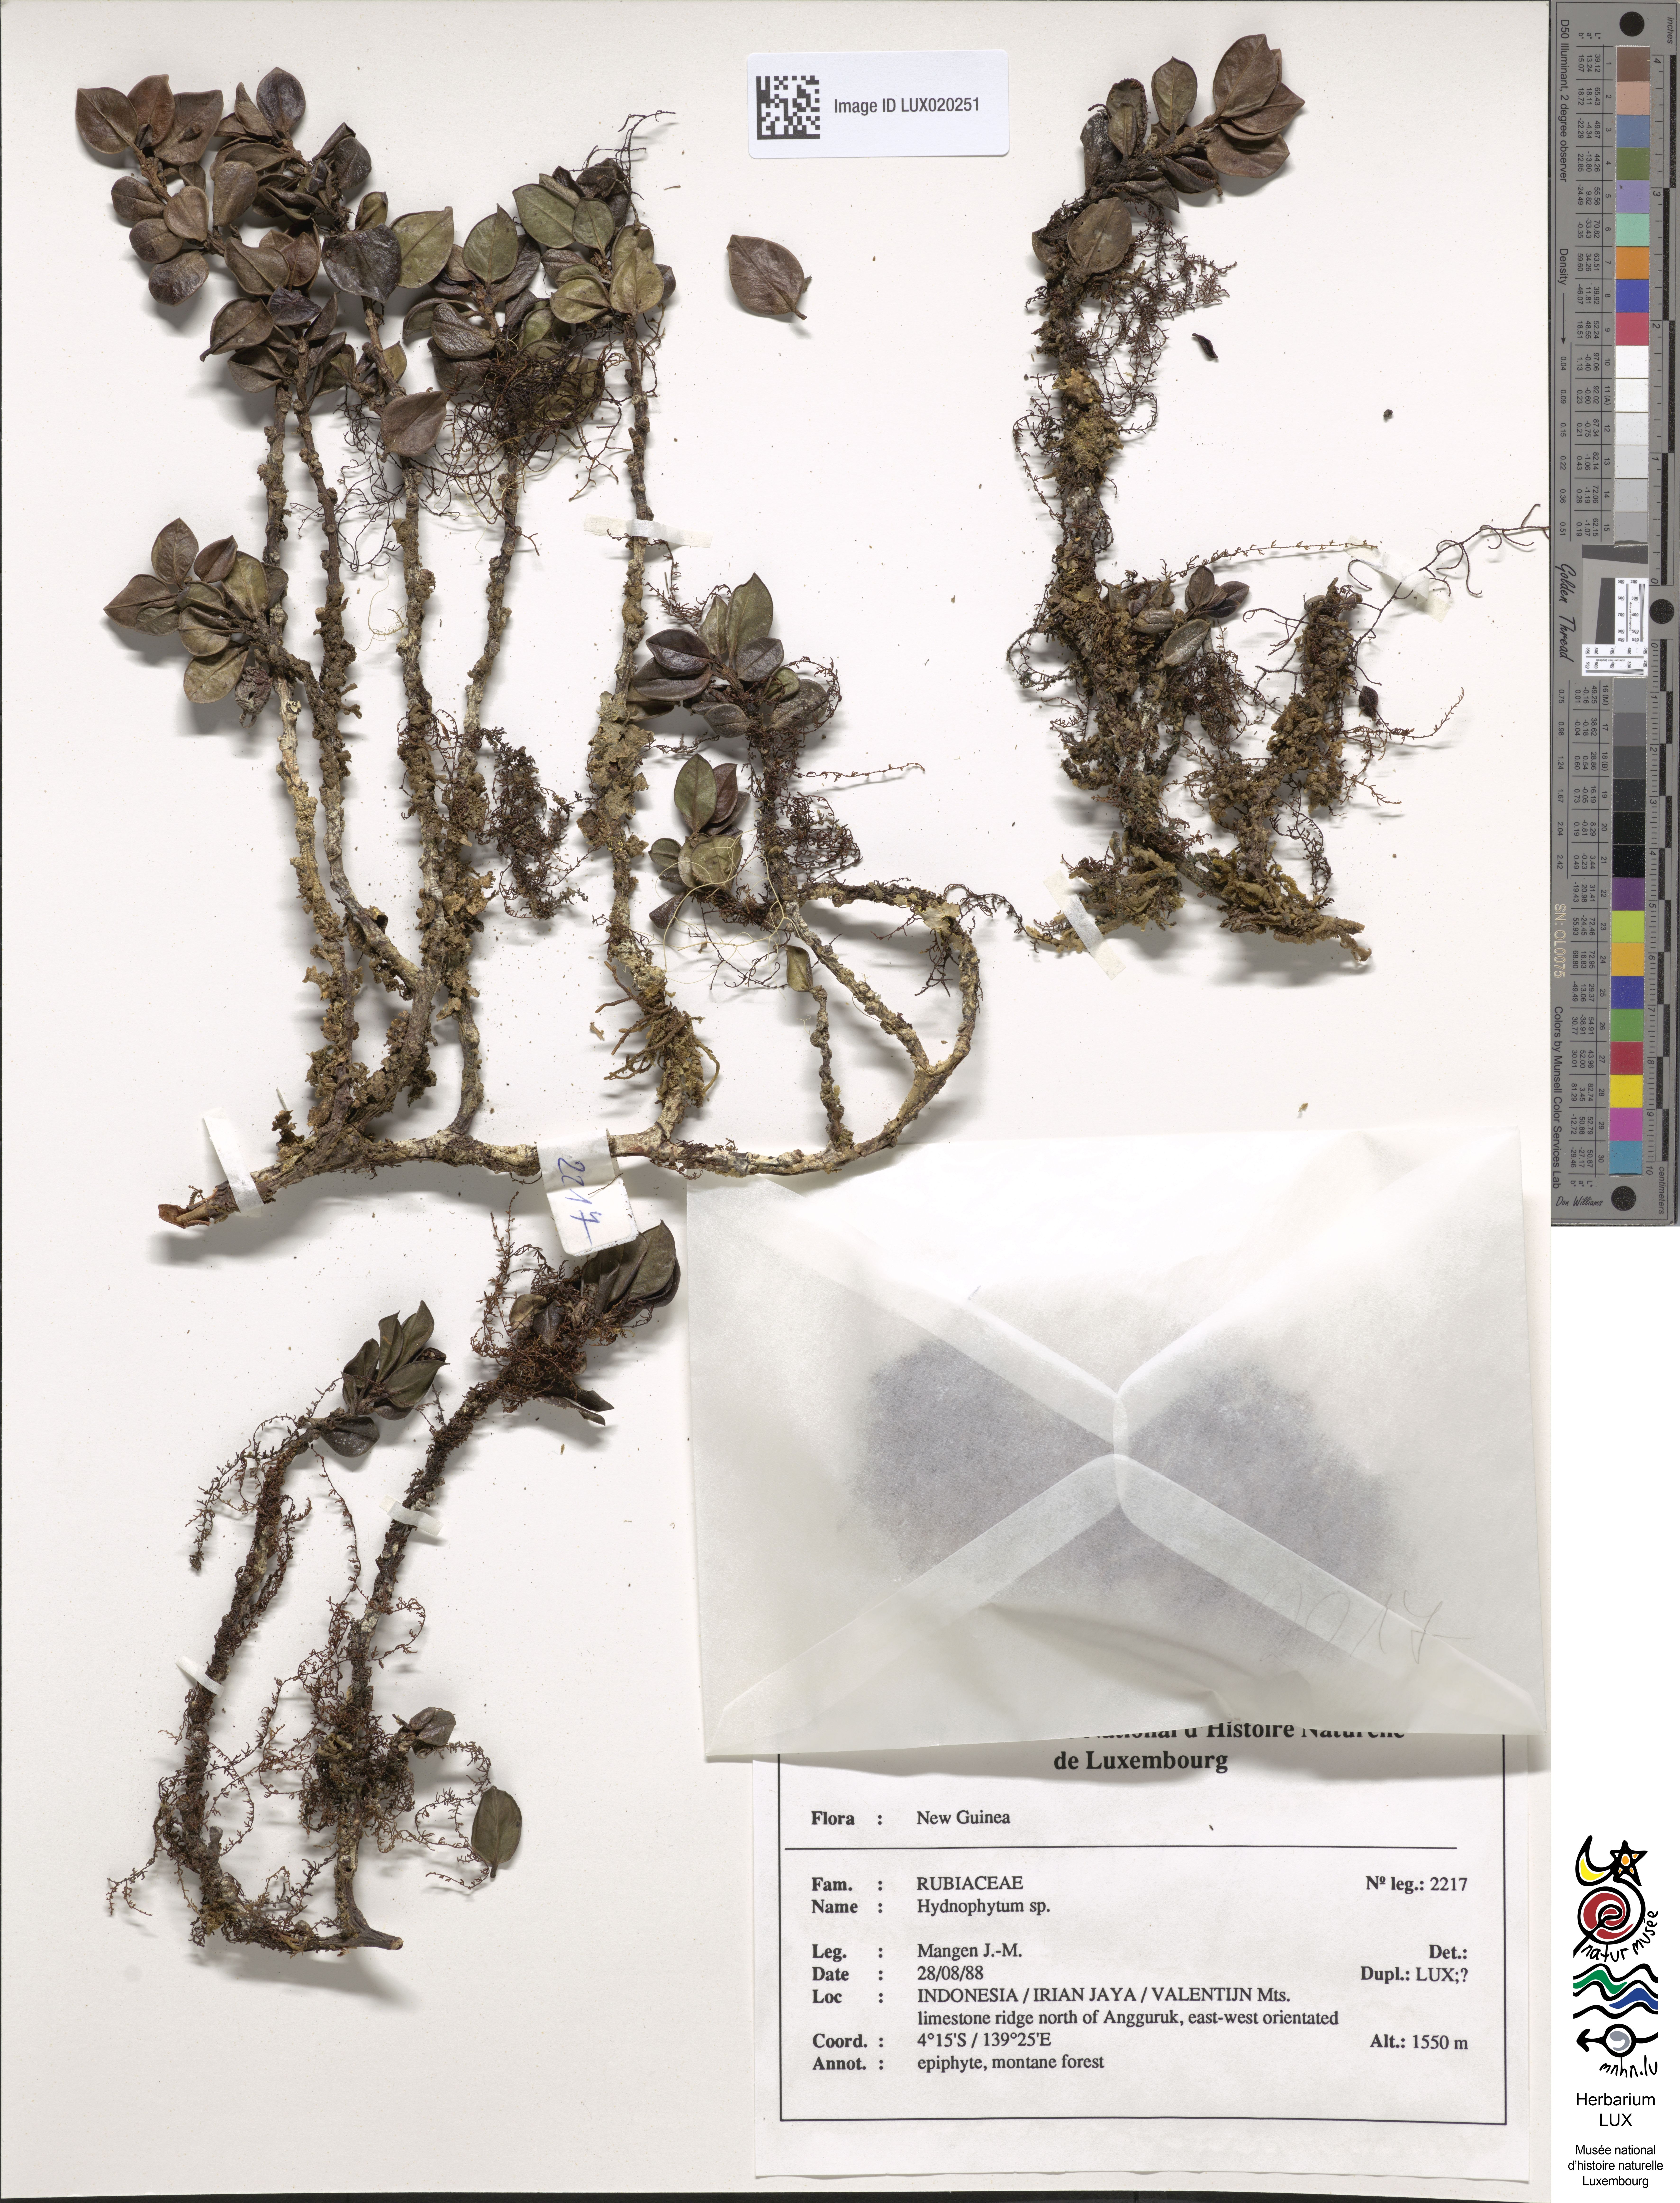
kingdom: Plantae
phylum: Tracheophyta
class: Magnoliopsida
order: Gentianales
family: Rubiaceae
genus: Hydnophytum
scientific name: Hydnophytum
